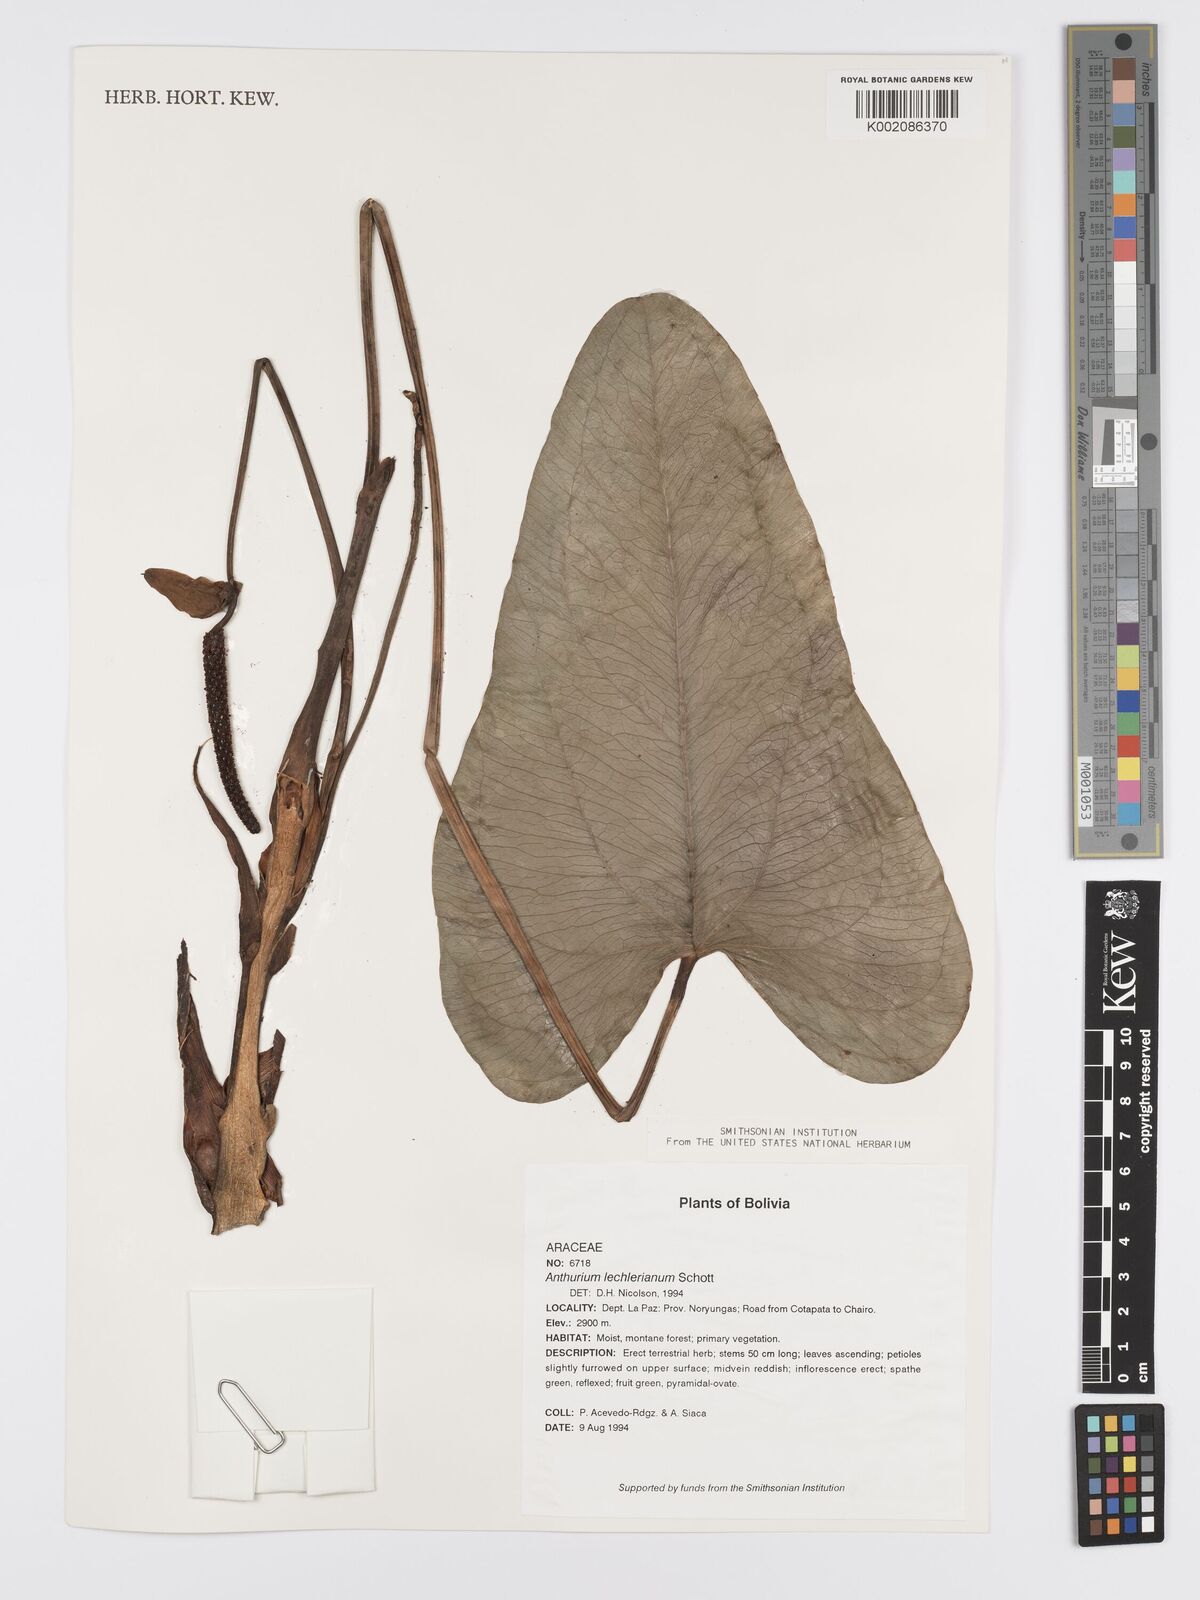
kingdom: Plantae
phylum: Tracheophyta
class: Liliopsida
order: Alismatales
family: Araceae
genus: Anthurium
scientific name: Anthurium lechlerianum
